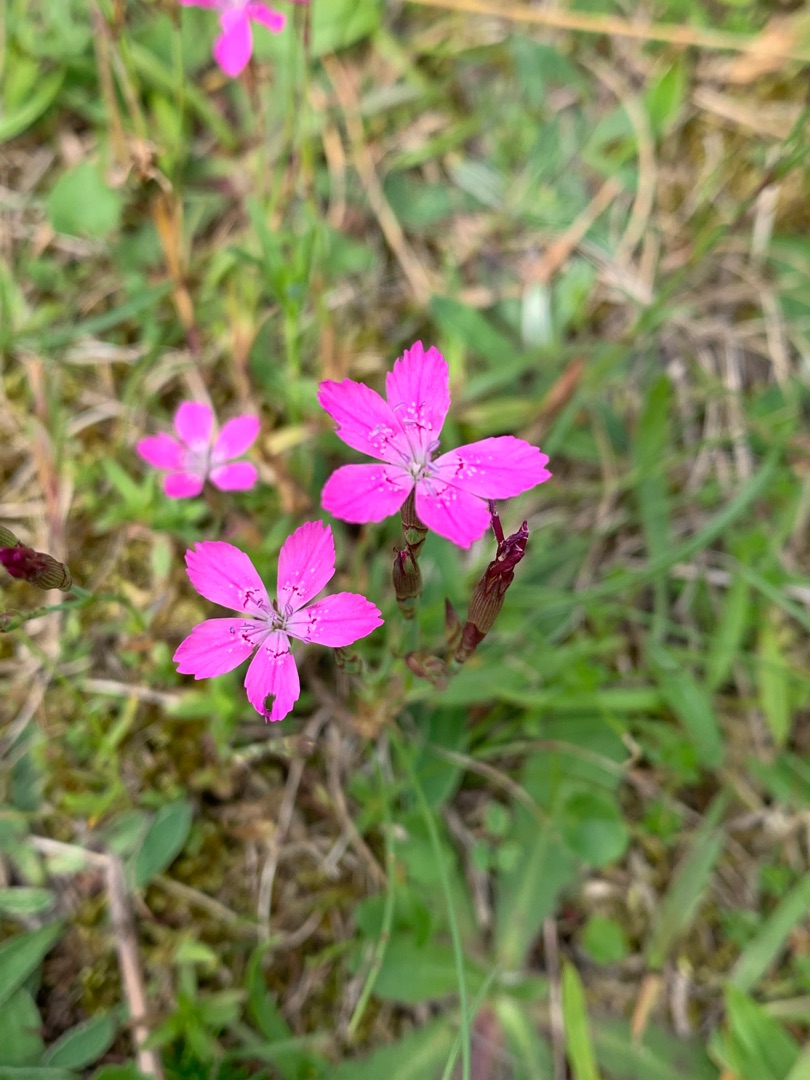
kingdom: Plantae
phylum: Tracheophyta
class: Magnoliopsida
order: Caryophyllales
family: Caryophyllaceae
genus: Dianthus
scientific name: Dianthus deltoides
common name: Bakke-nellike
